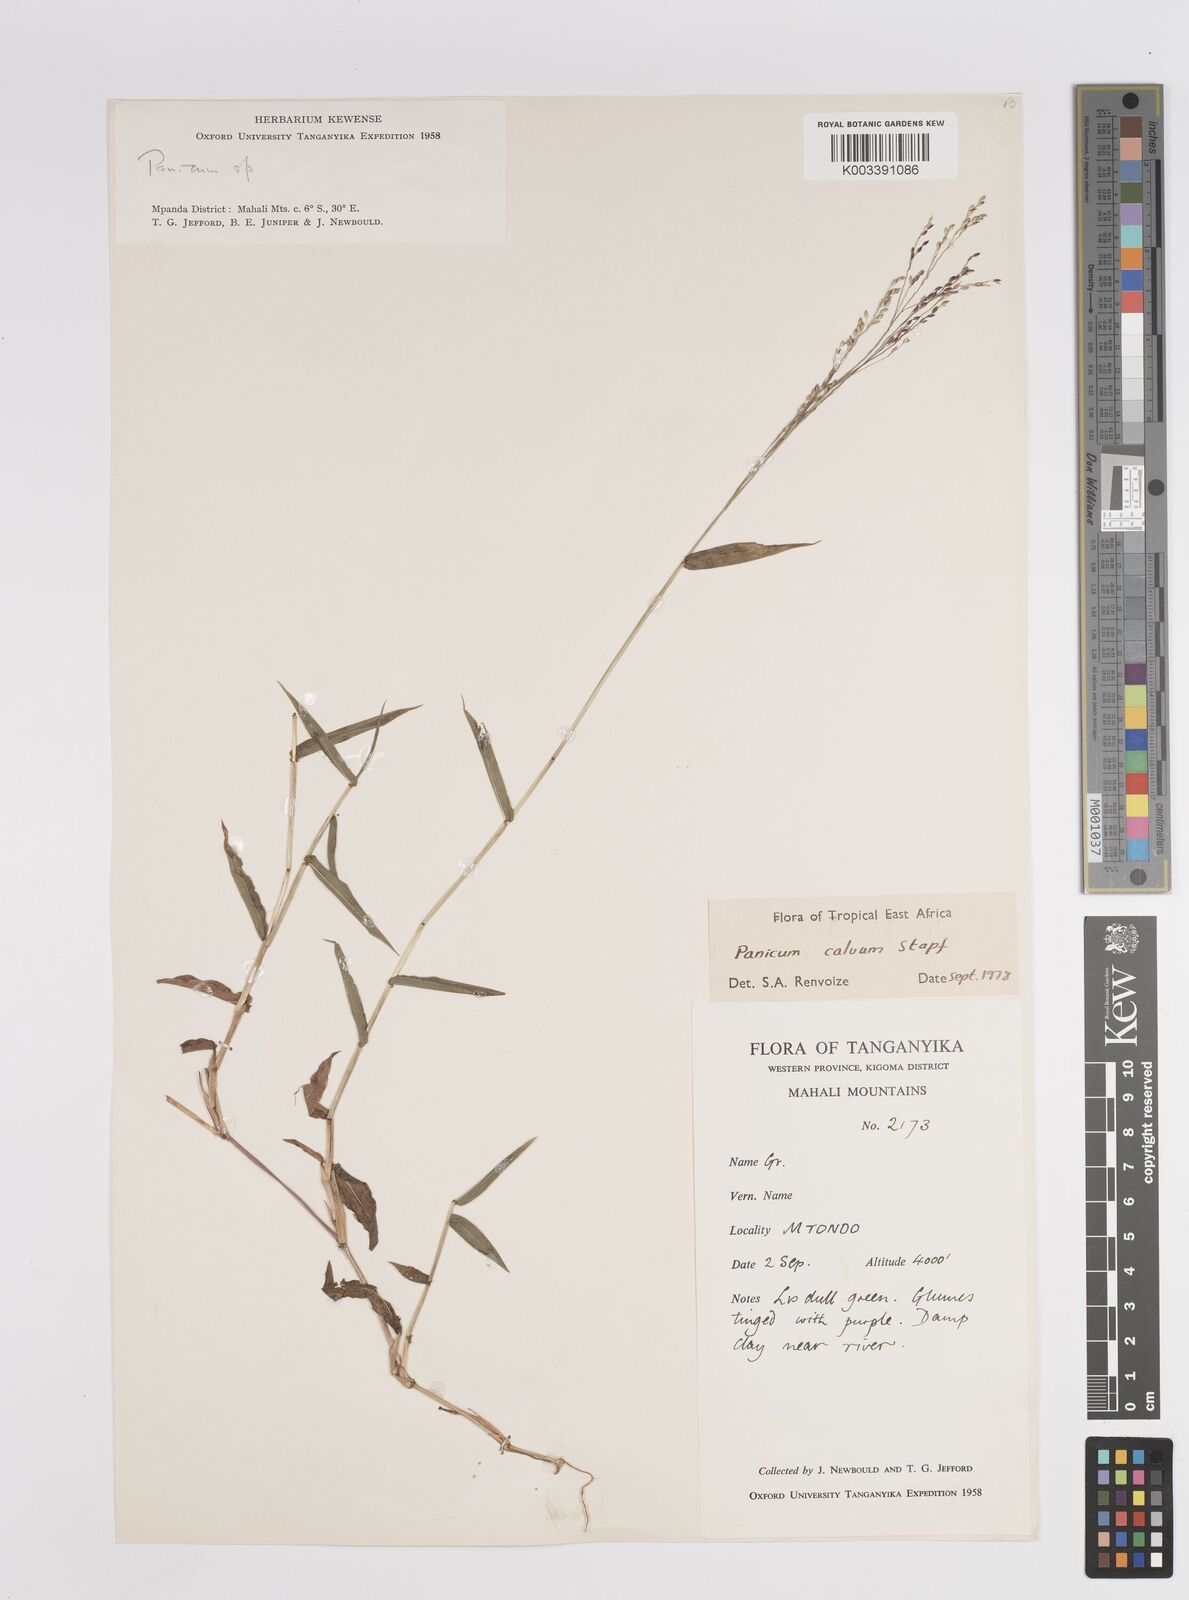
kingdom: Plantae
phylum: Tracheophyta
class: Liliopsida
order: Poales
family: Poaceae
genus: Panicum
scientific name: Panicum calvum
